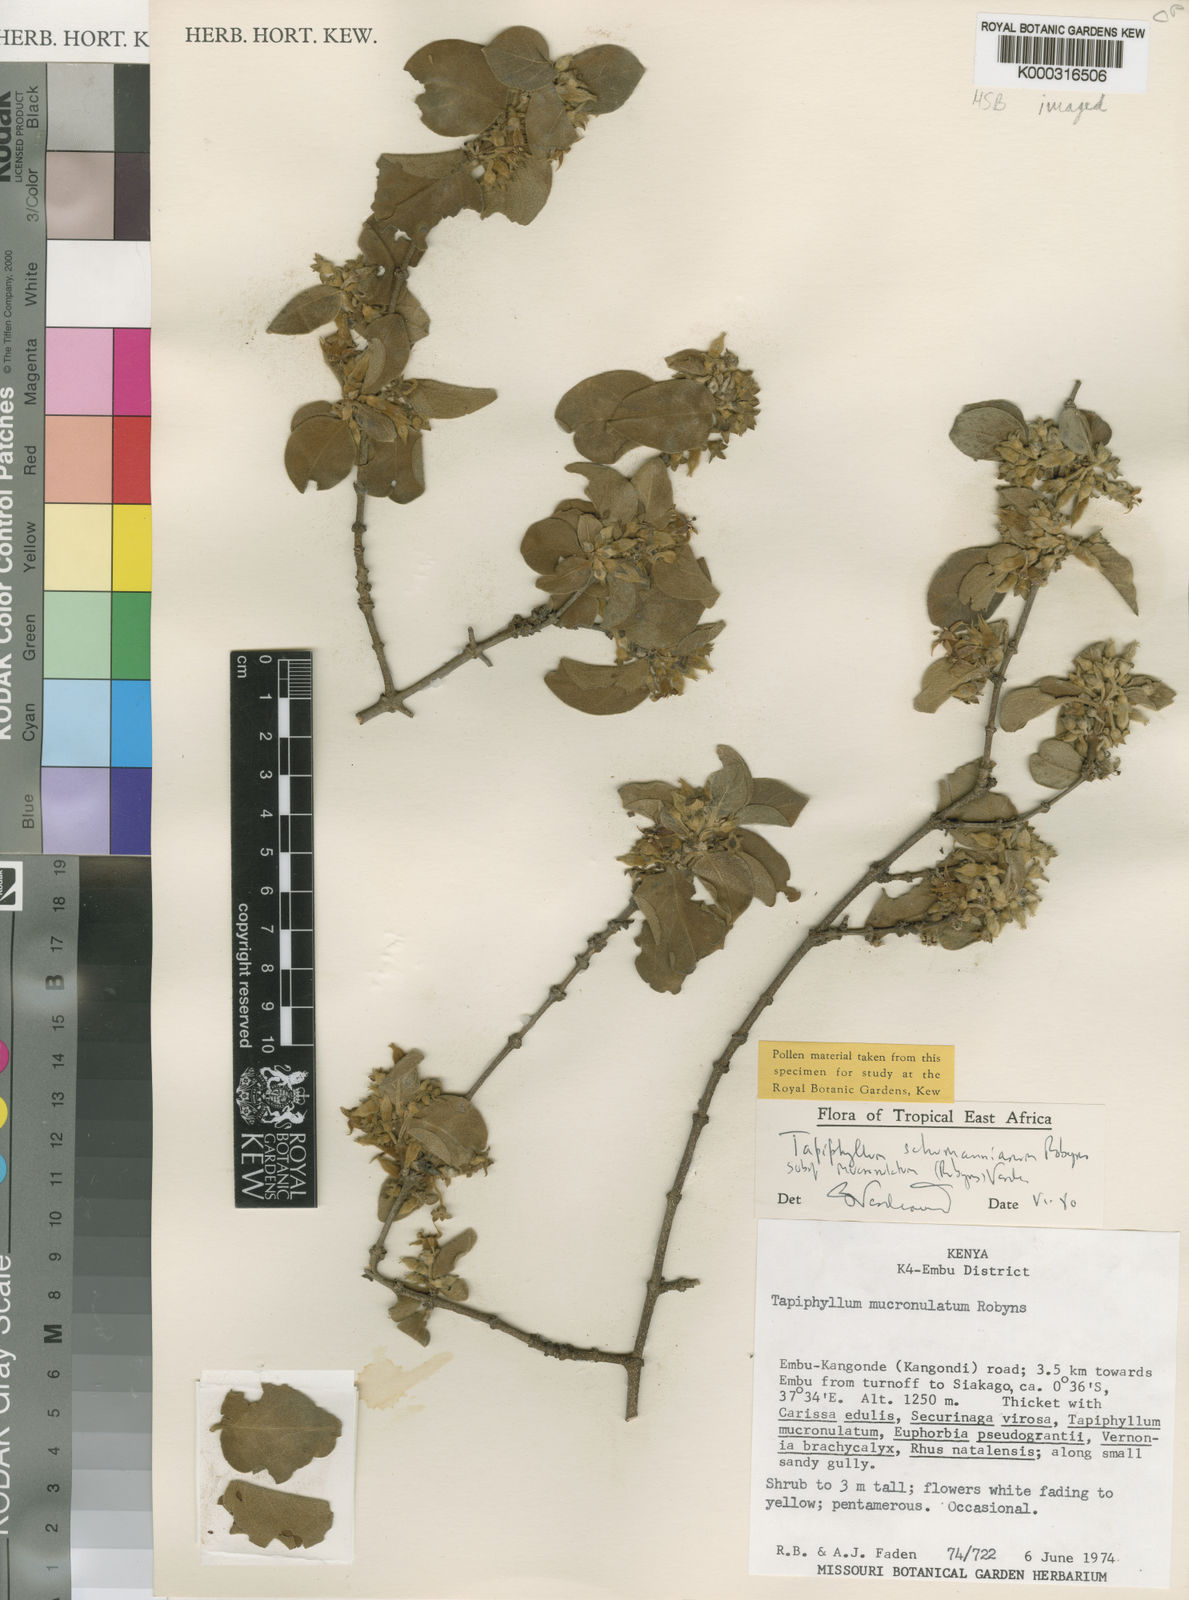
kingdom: Plantae
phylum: Tracheophyta
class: Magnoliopsida
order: Gentianales
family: Rubiaceae
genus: Vangueria
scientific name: Vangueria schumanniana
